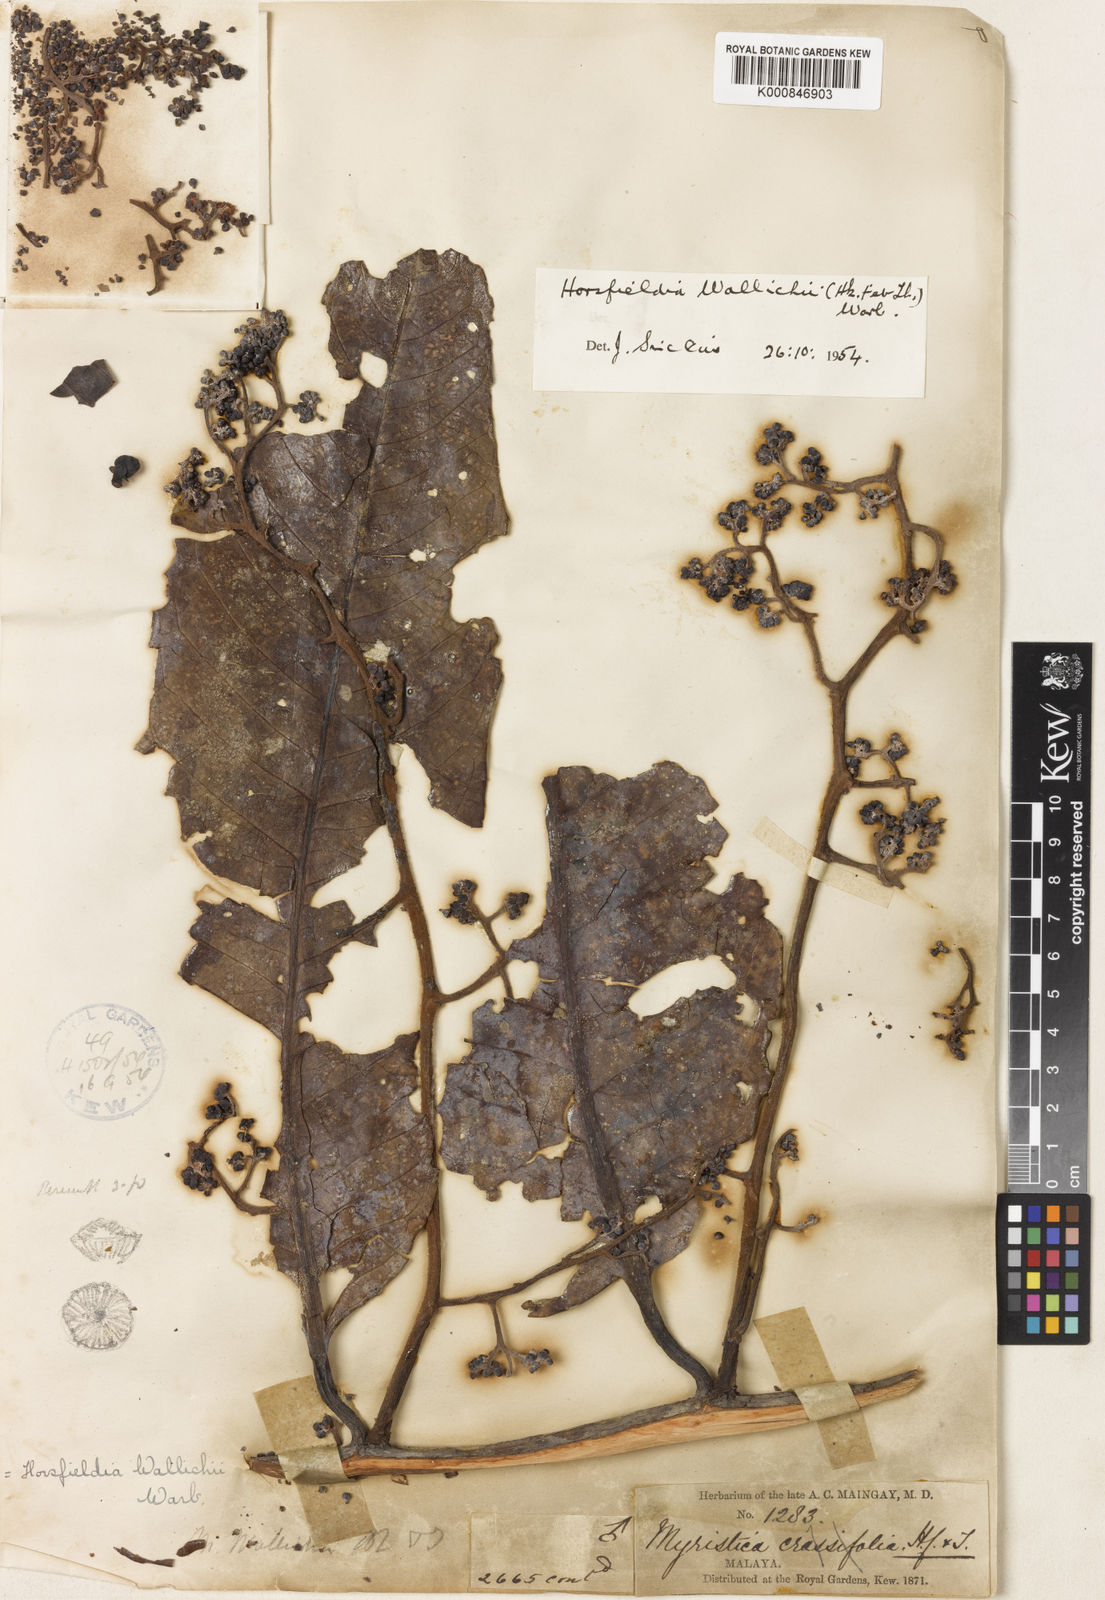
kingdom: Plantae
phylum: Tracheophyta
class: Magnoliopsida
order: Magnoliales
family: Myristicaceae
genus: Horsfieldia
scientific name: Horsfieldia wallichii
